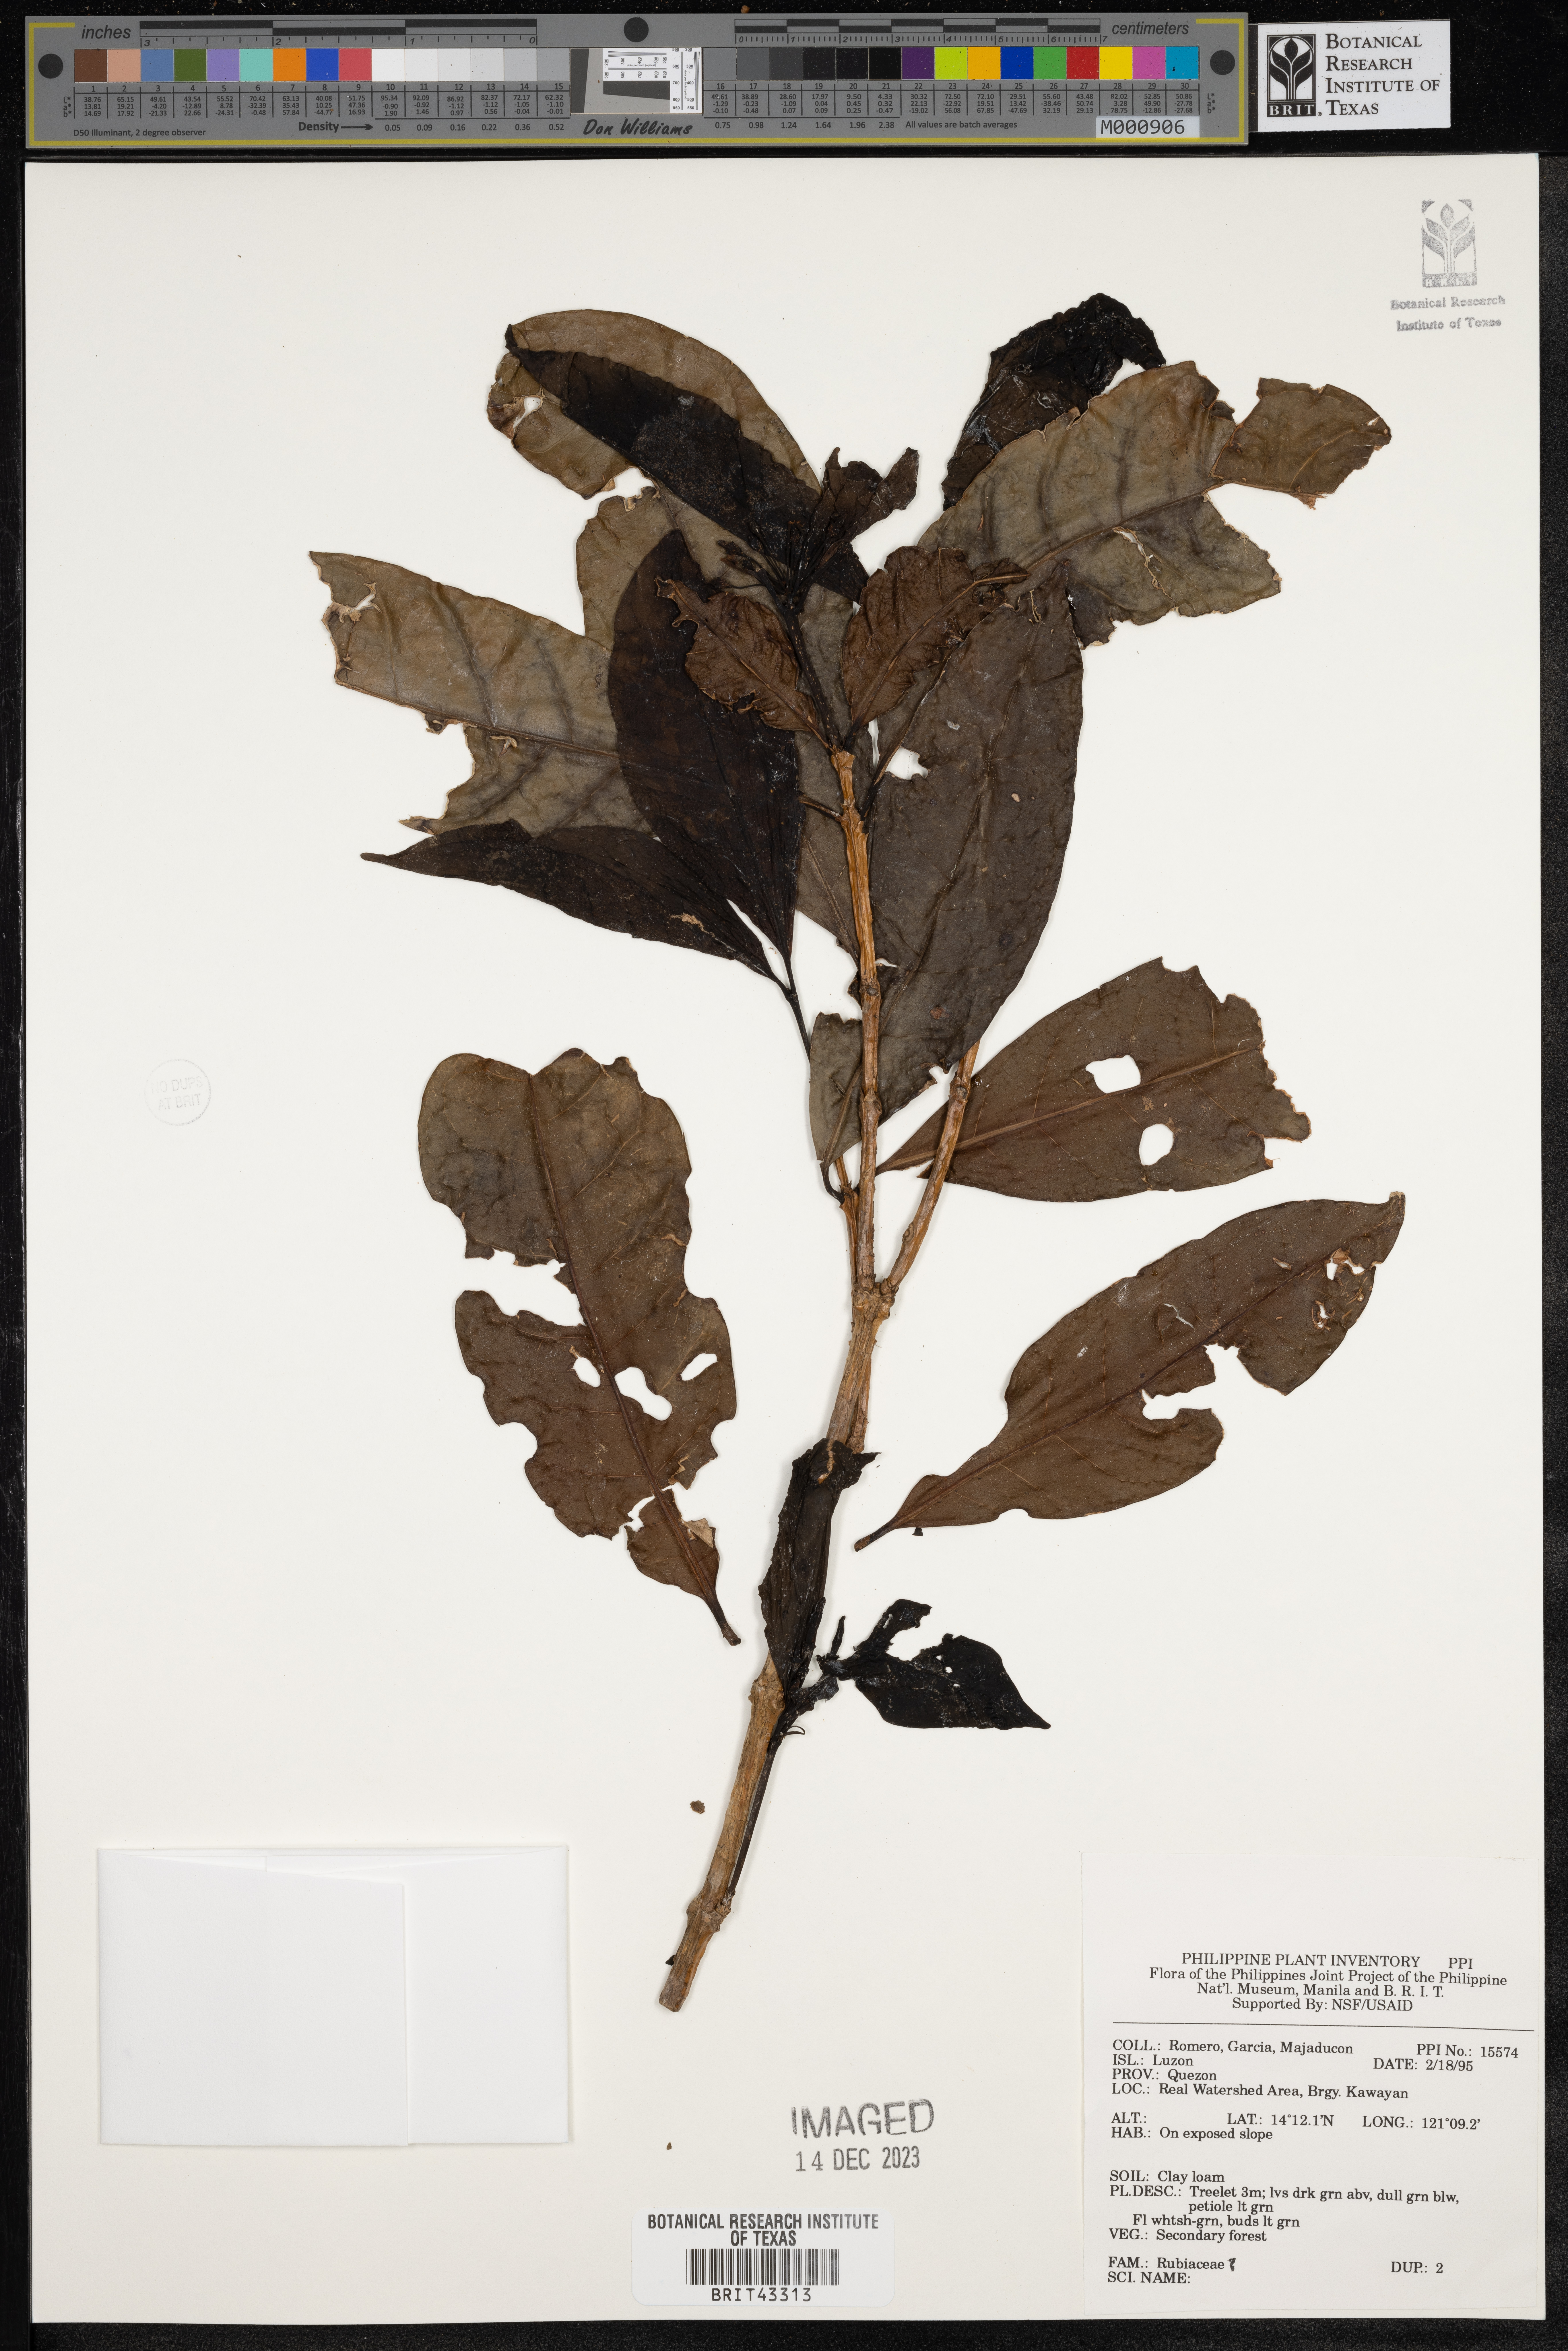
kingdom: Plantae
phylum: Tracheophyta
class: Magnoliopsida
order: Gentianales
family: Rubiaceae
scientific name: Rubiaceae
